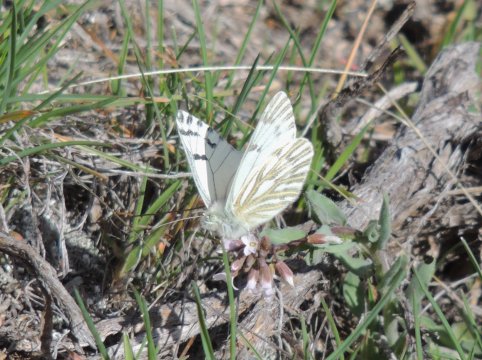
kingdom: Animalia
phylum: Arthropoda
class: Insecta
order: Lepidoptera
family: Pieridae
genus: Pontia
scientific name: Pontia sisymbrii
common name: Spring White
